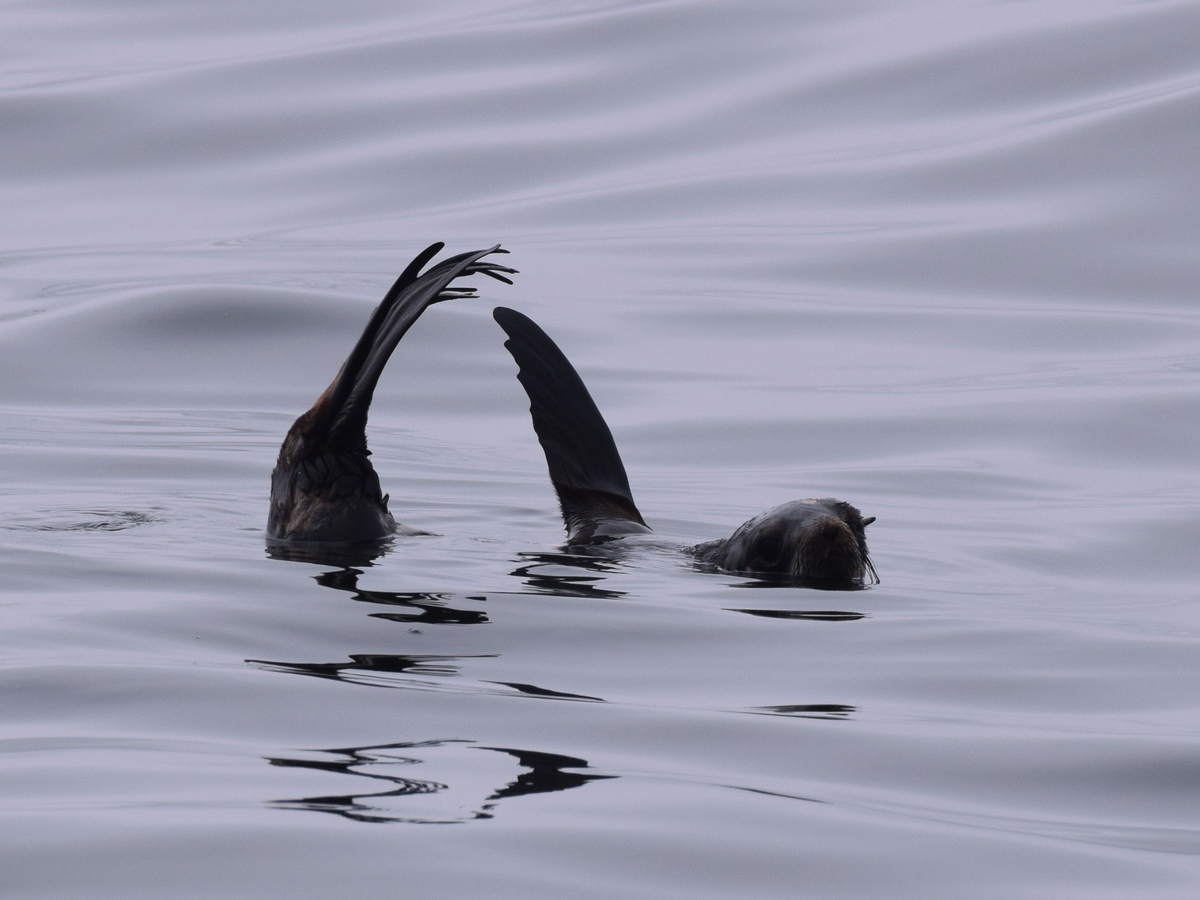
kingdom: Animalia
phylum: Chordata
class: Mammalia
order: Carnivora
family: Otariidae
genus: Zalophus
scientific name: Zalophus californianus
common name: California sea lion
